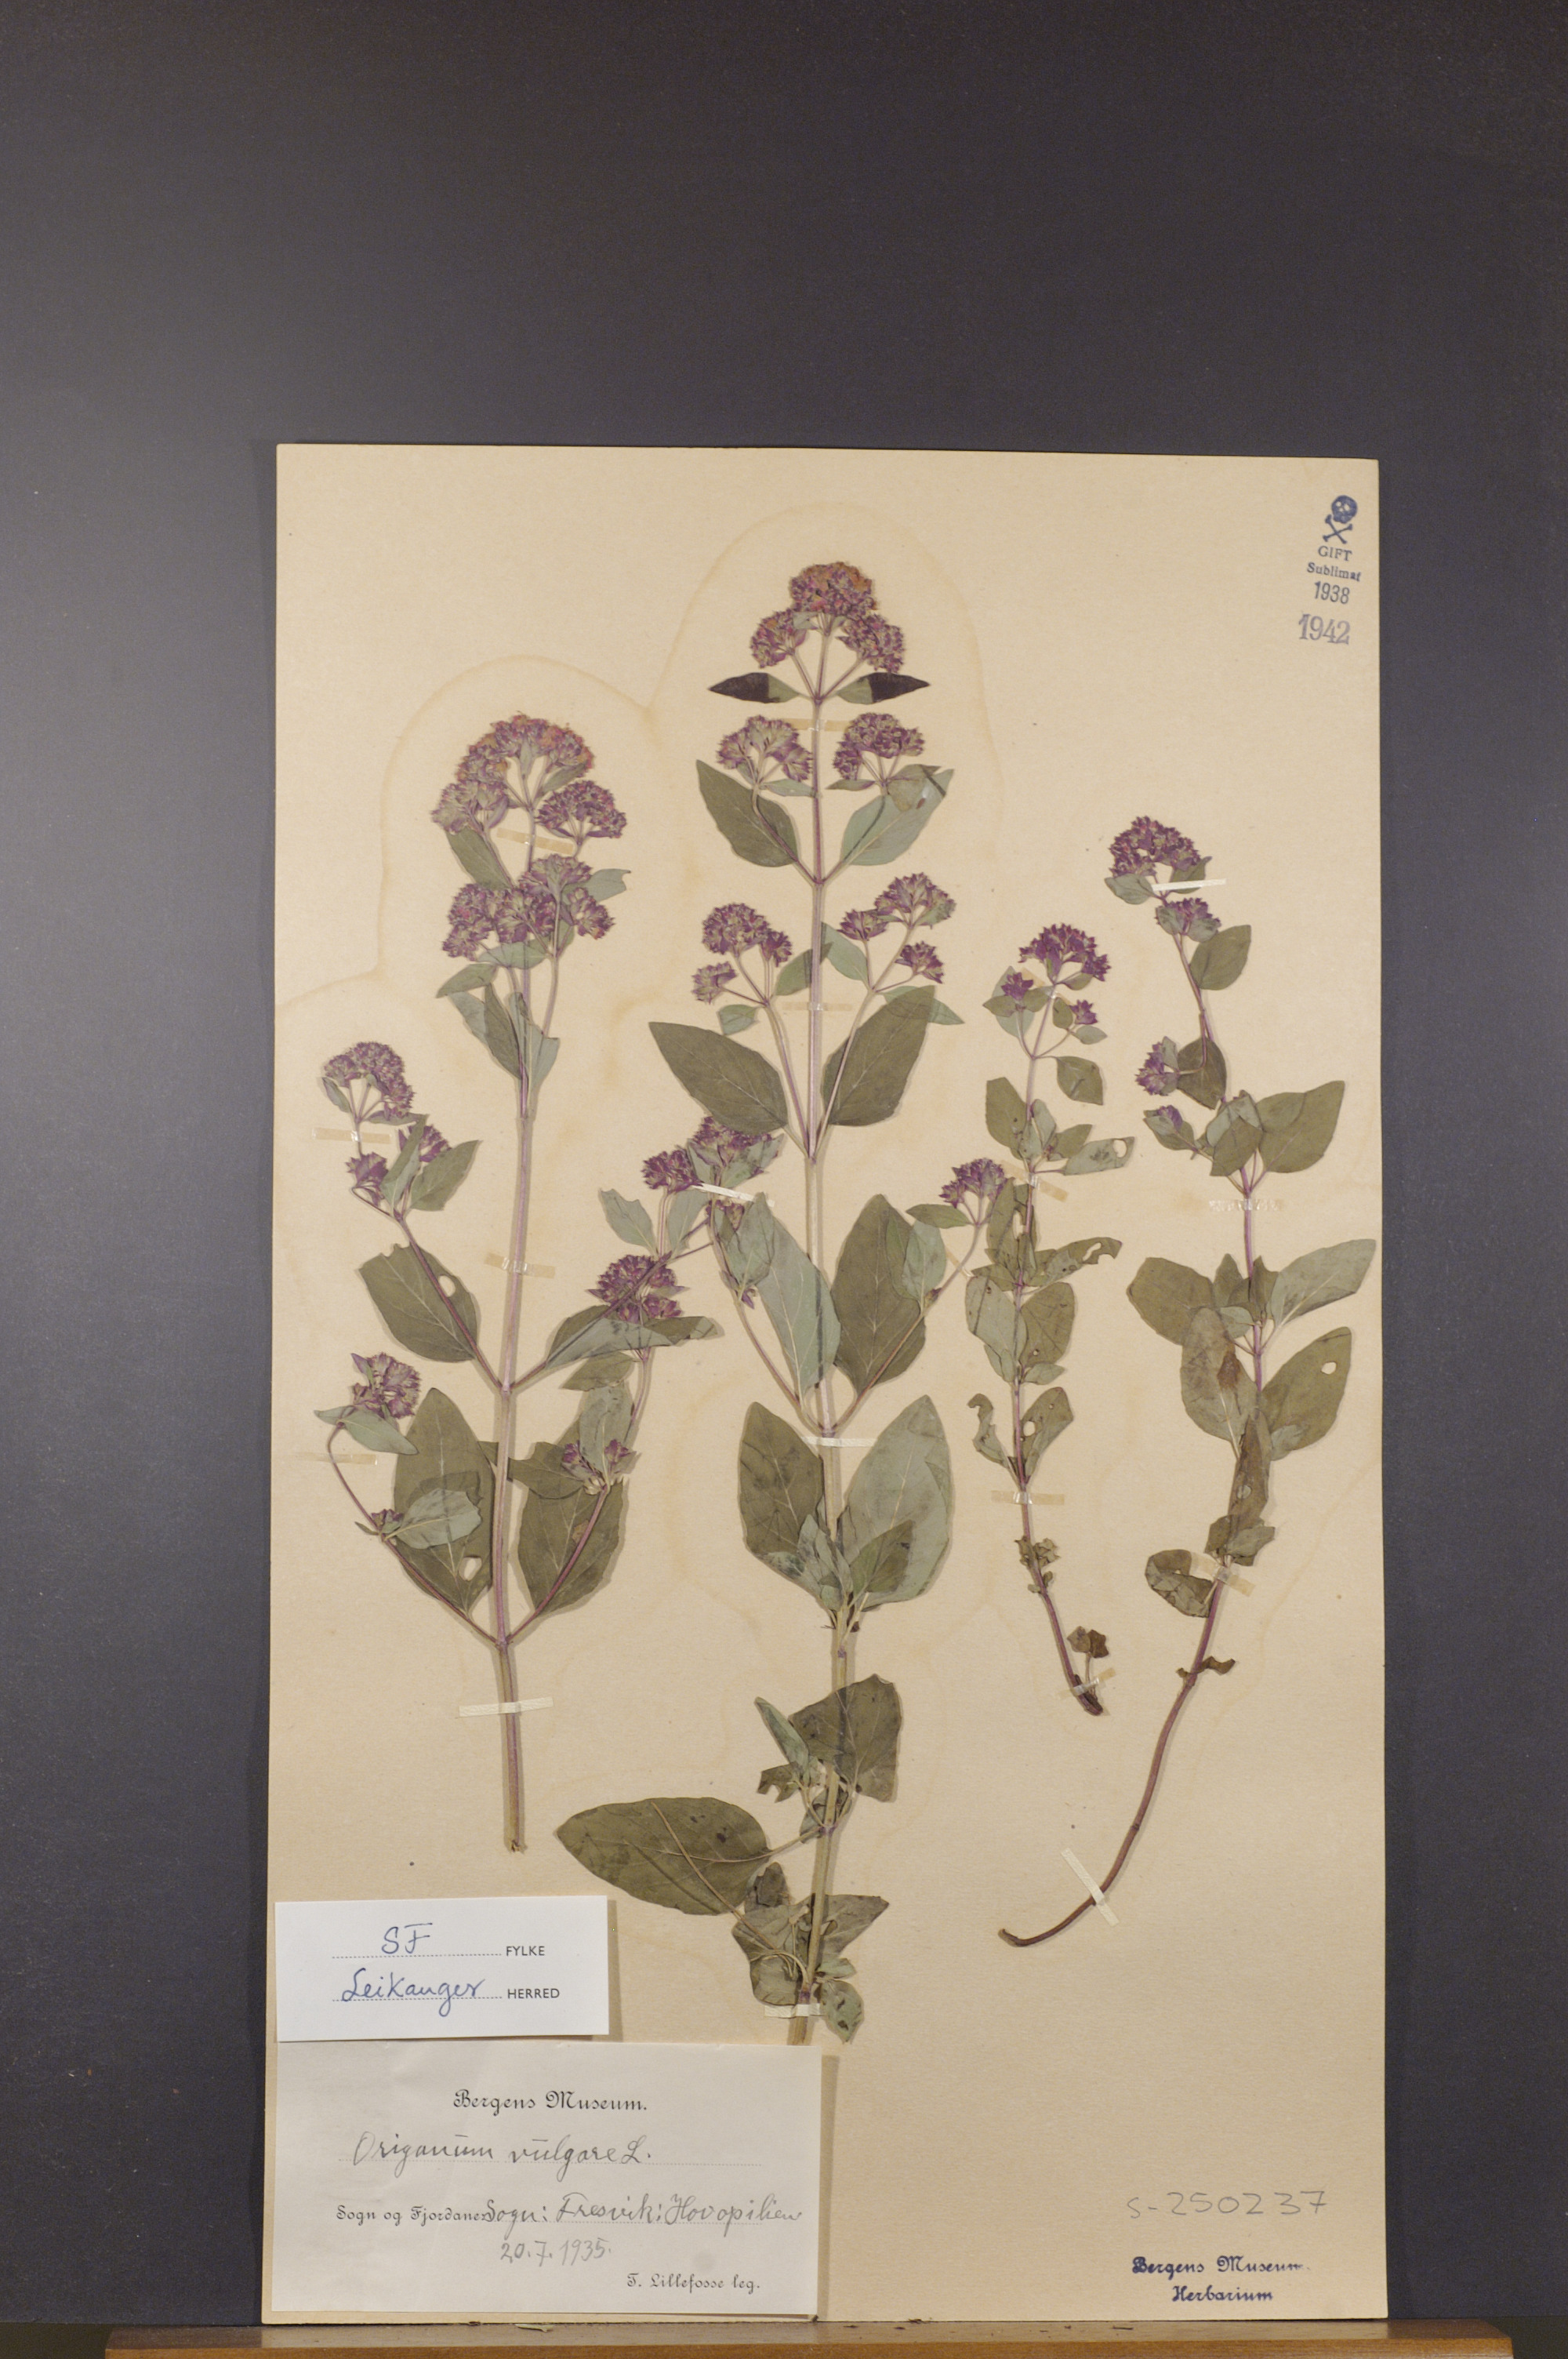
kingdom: Plantae
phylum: Tracheophyta
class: Magnoliopsida
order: Lamiales
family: Lamiaceae
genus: Origanum
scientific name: Origanum vulgare
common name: Wild marjoram
